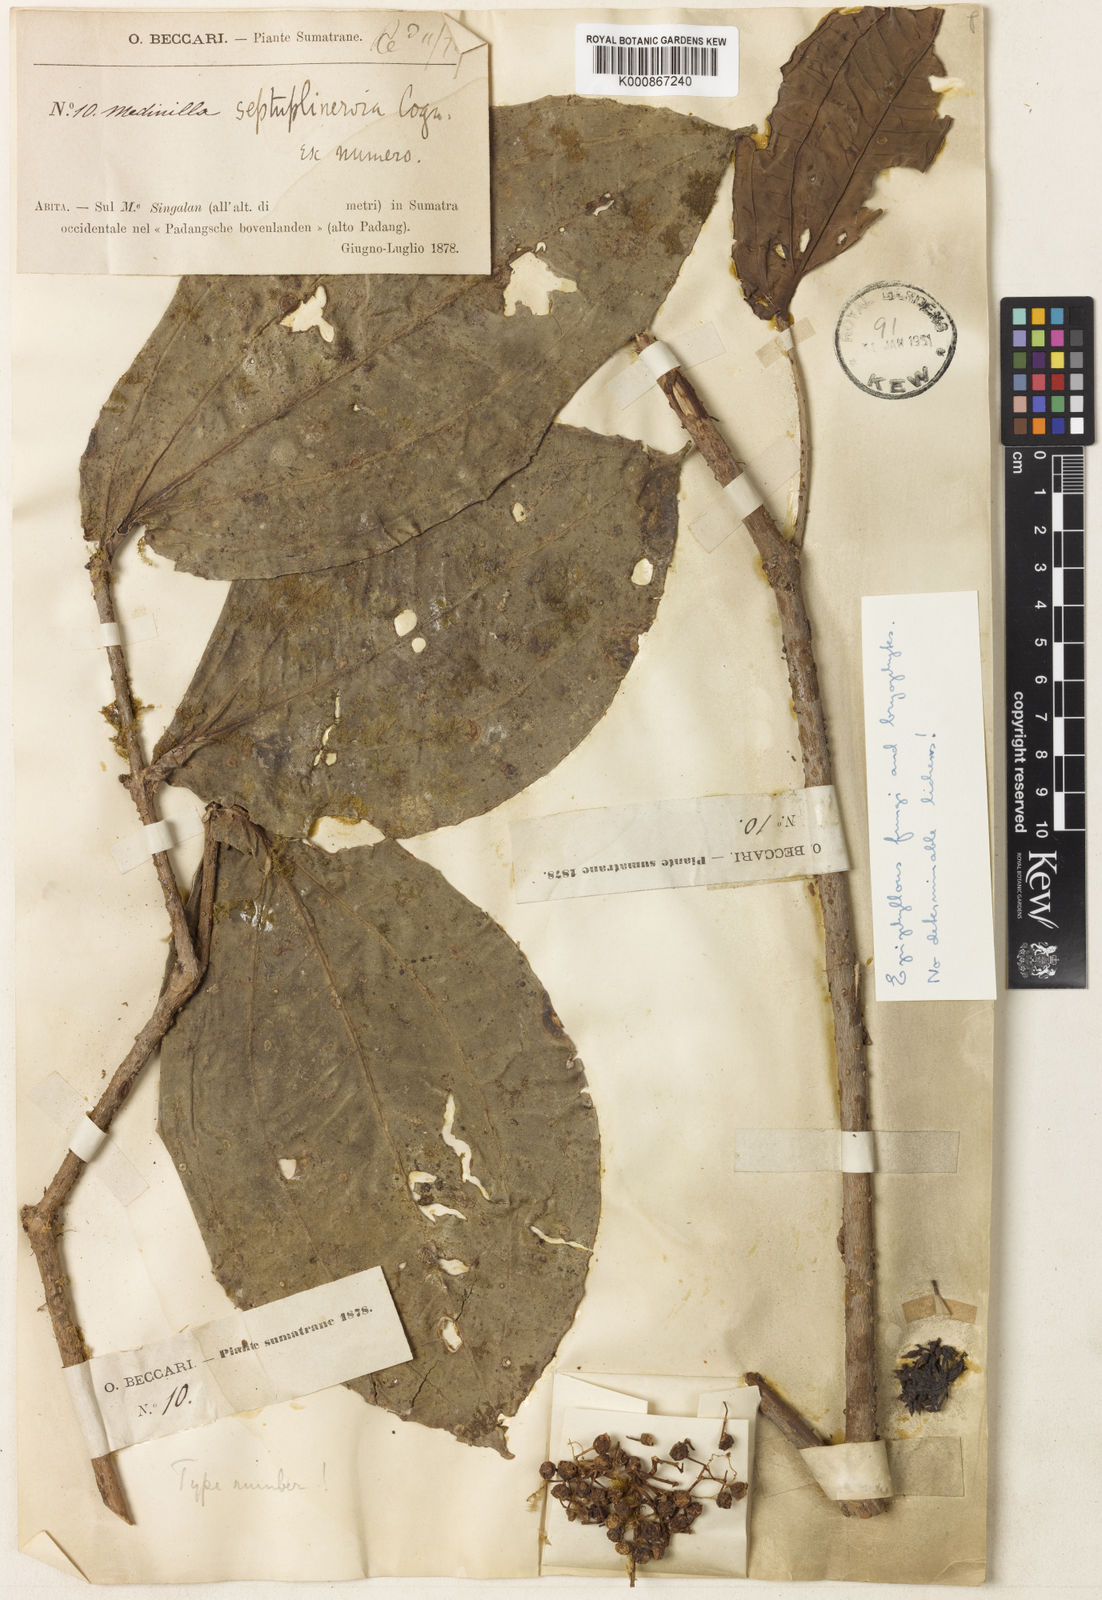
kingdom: Plantae
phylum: Tracheophyta
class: Magnoliopsida
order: Myrtales
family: Melastomataceae
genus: Medinilla
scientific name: Medinilla verrucosa
